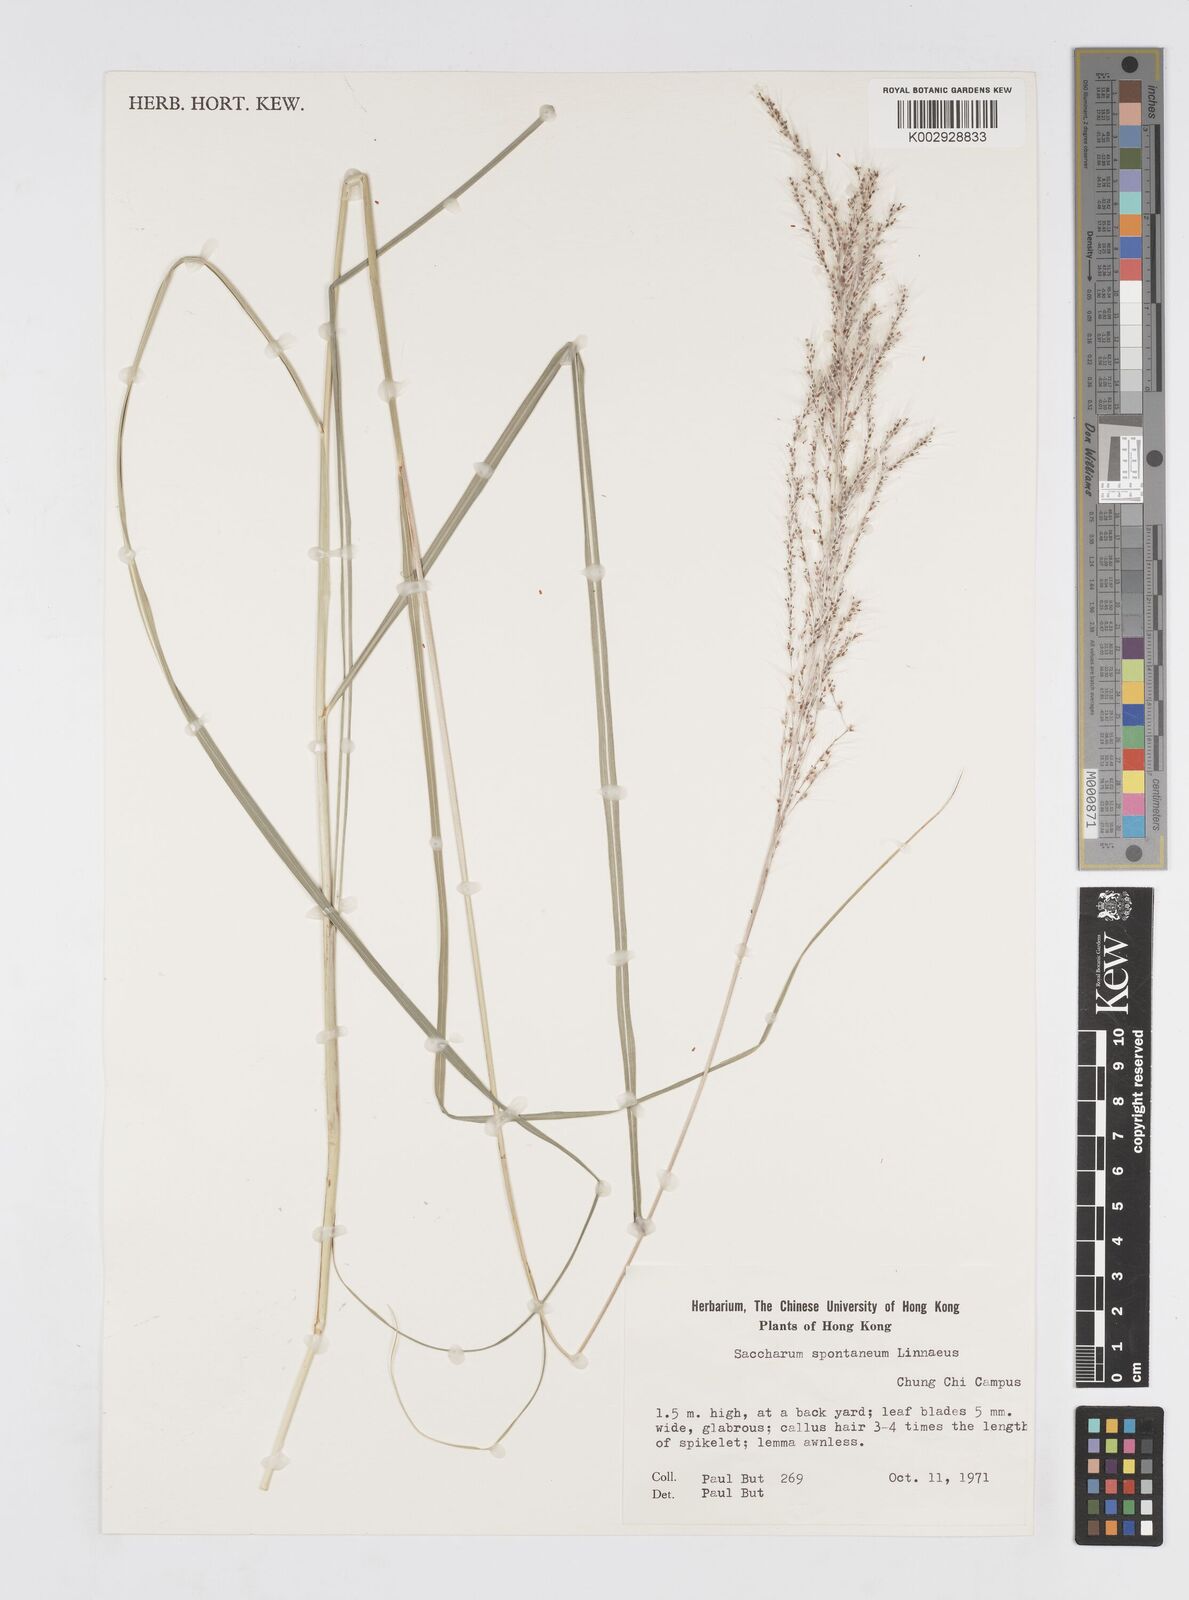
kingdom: Plantae
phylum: Tracheophyta
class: Liliopsida
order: Poales
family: Poaceae
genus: Saccharum
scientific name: Saccharum spontaneum
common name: Wild sugarcane
